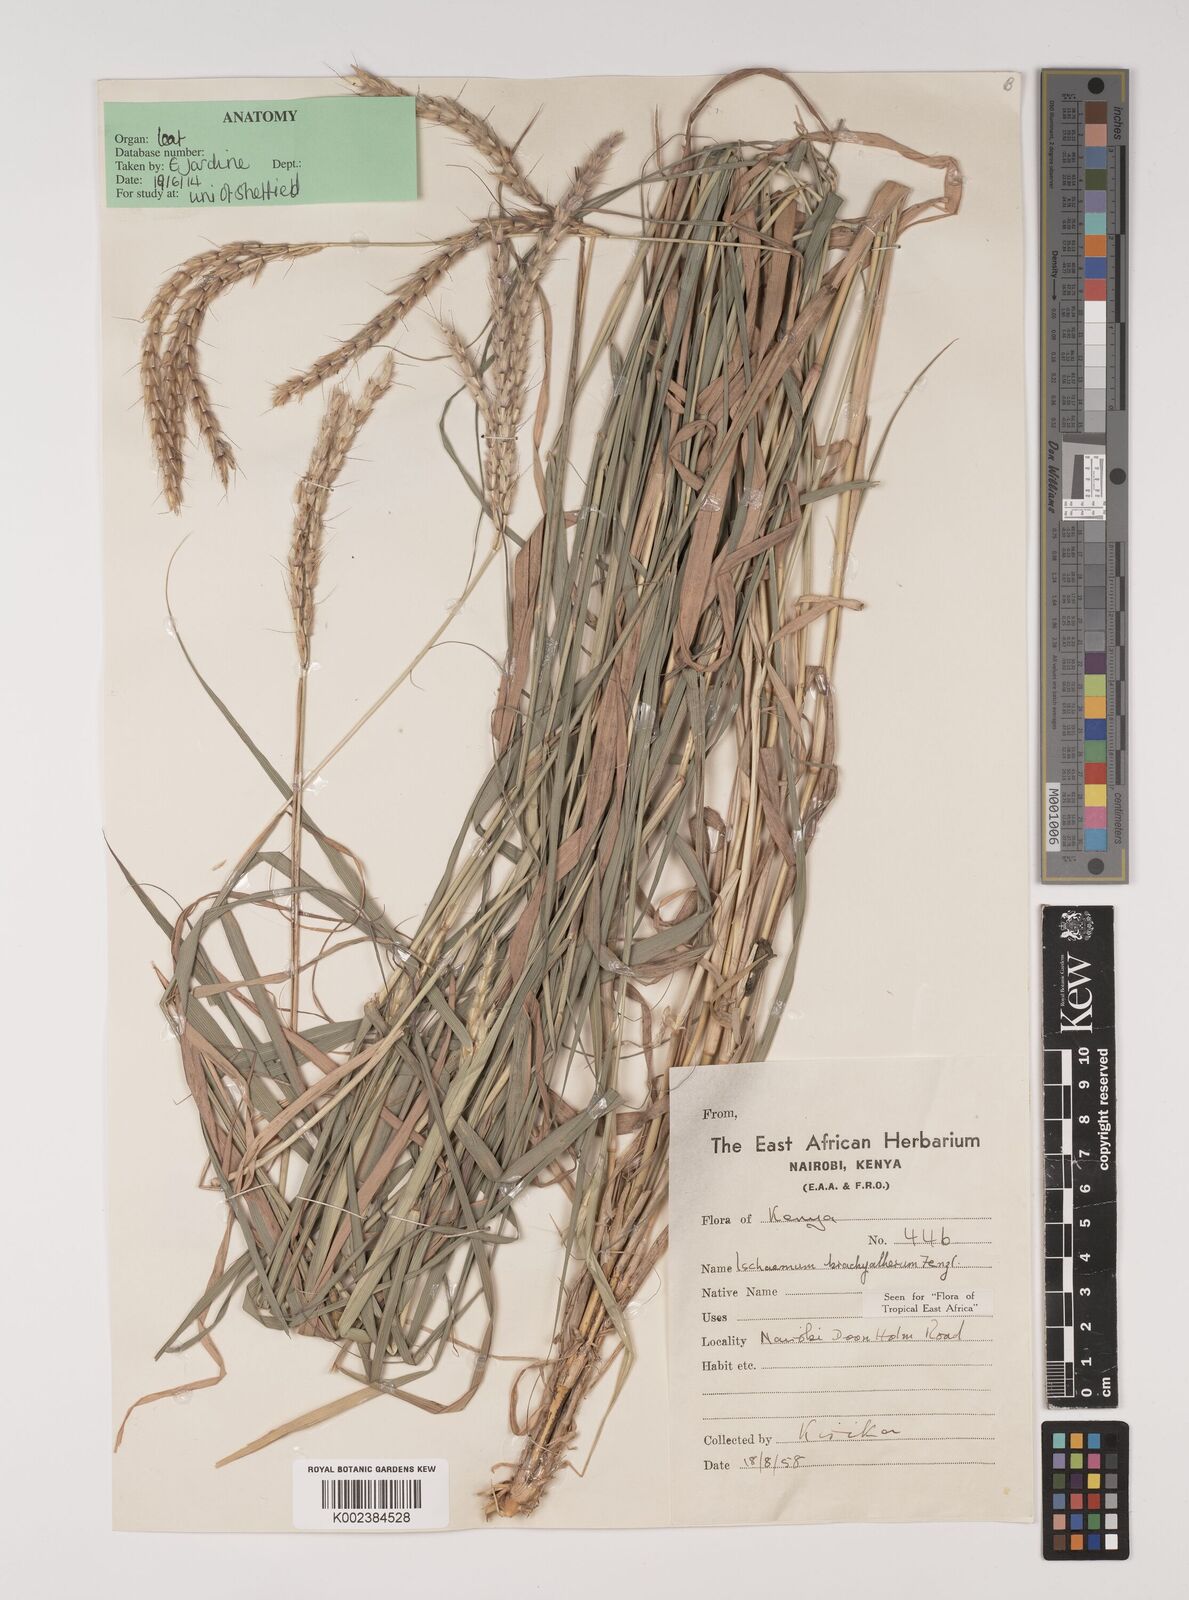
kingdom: Plantae
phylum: Tracheophyta
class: Liliopsida
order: Poales
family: Poaceae
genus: Ischaemum
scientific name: Ischaemum afrum
